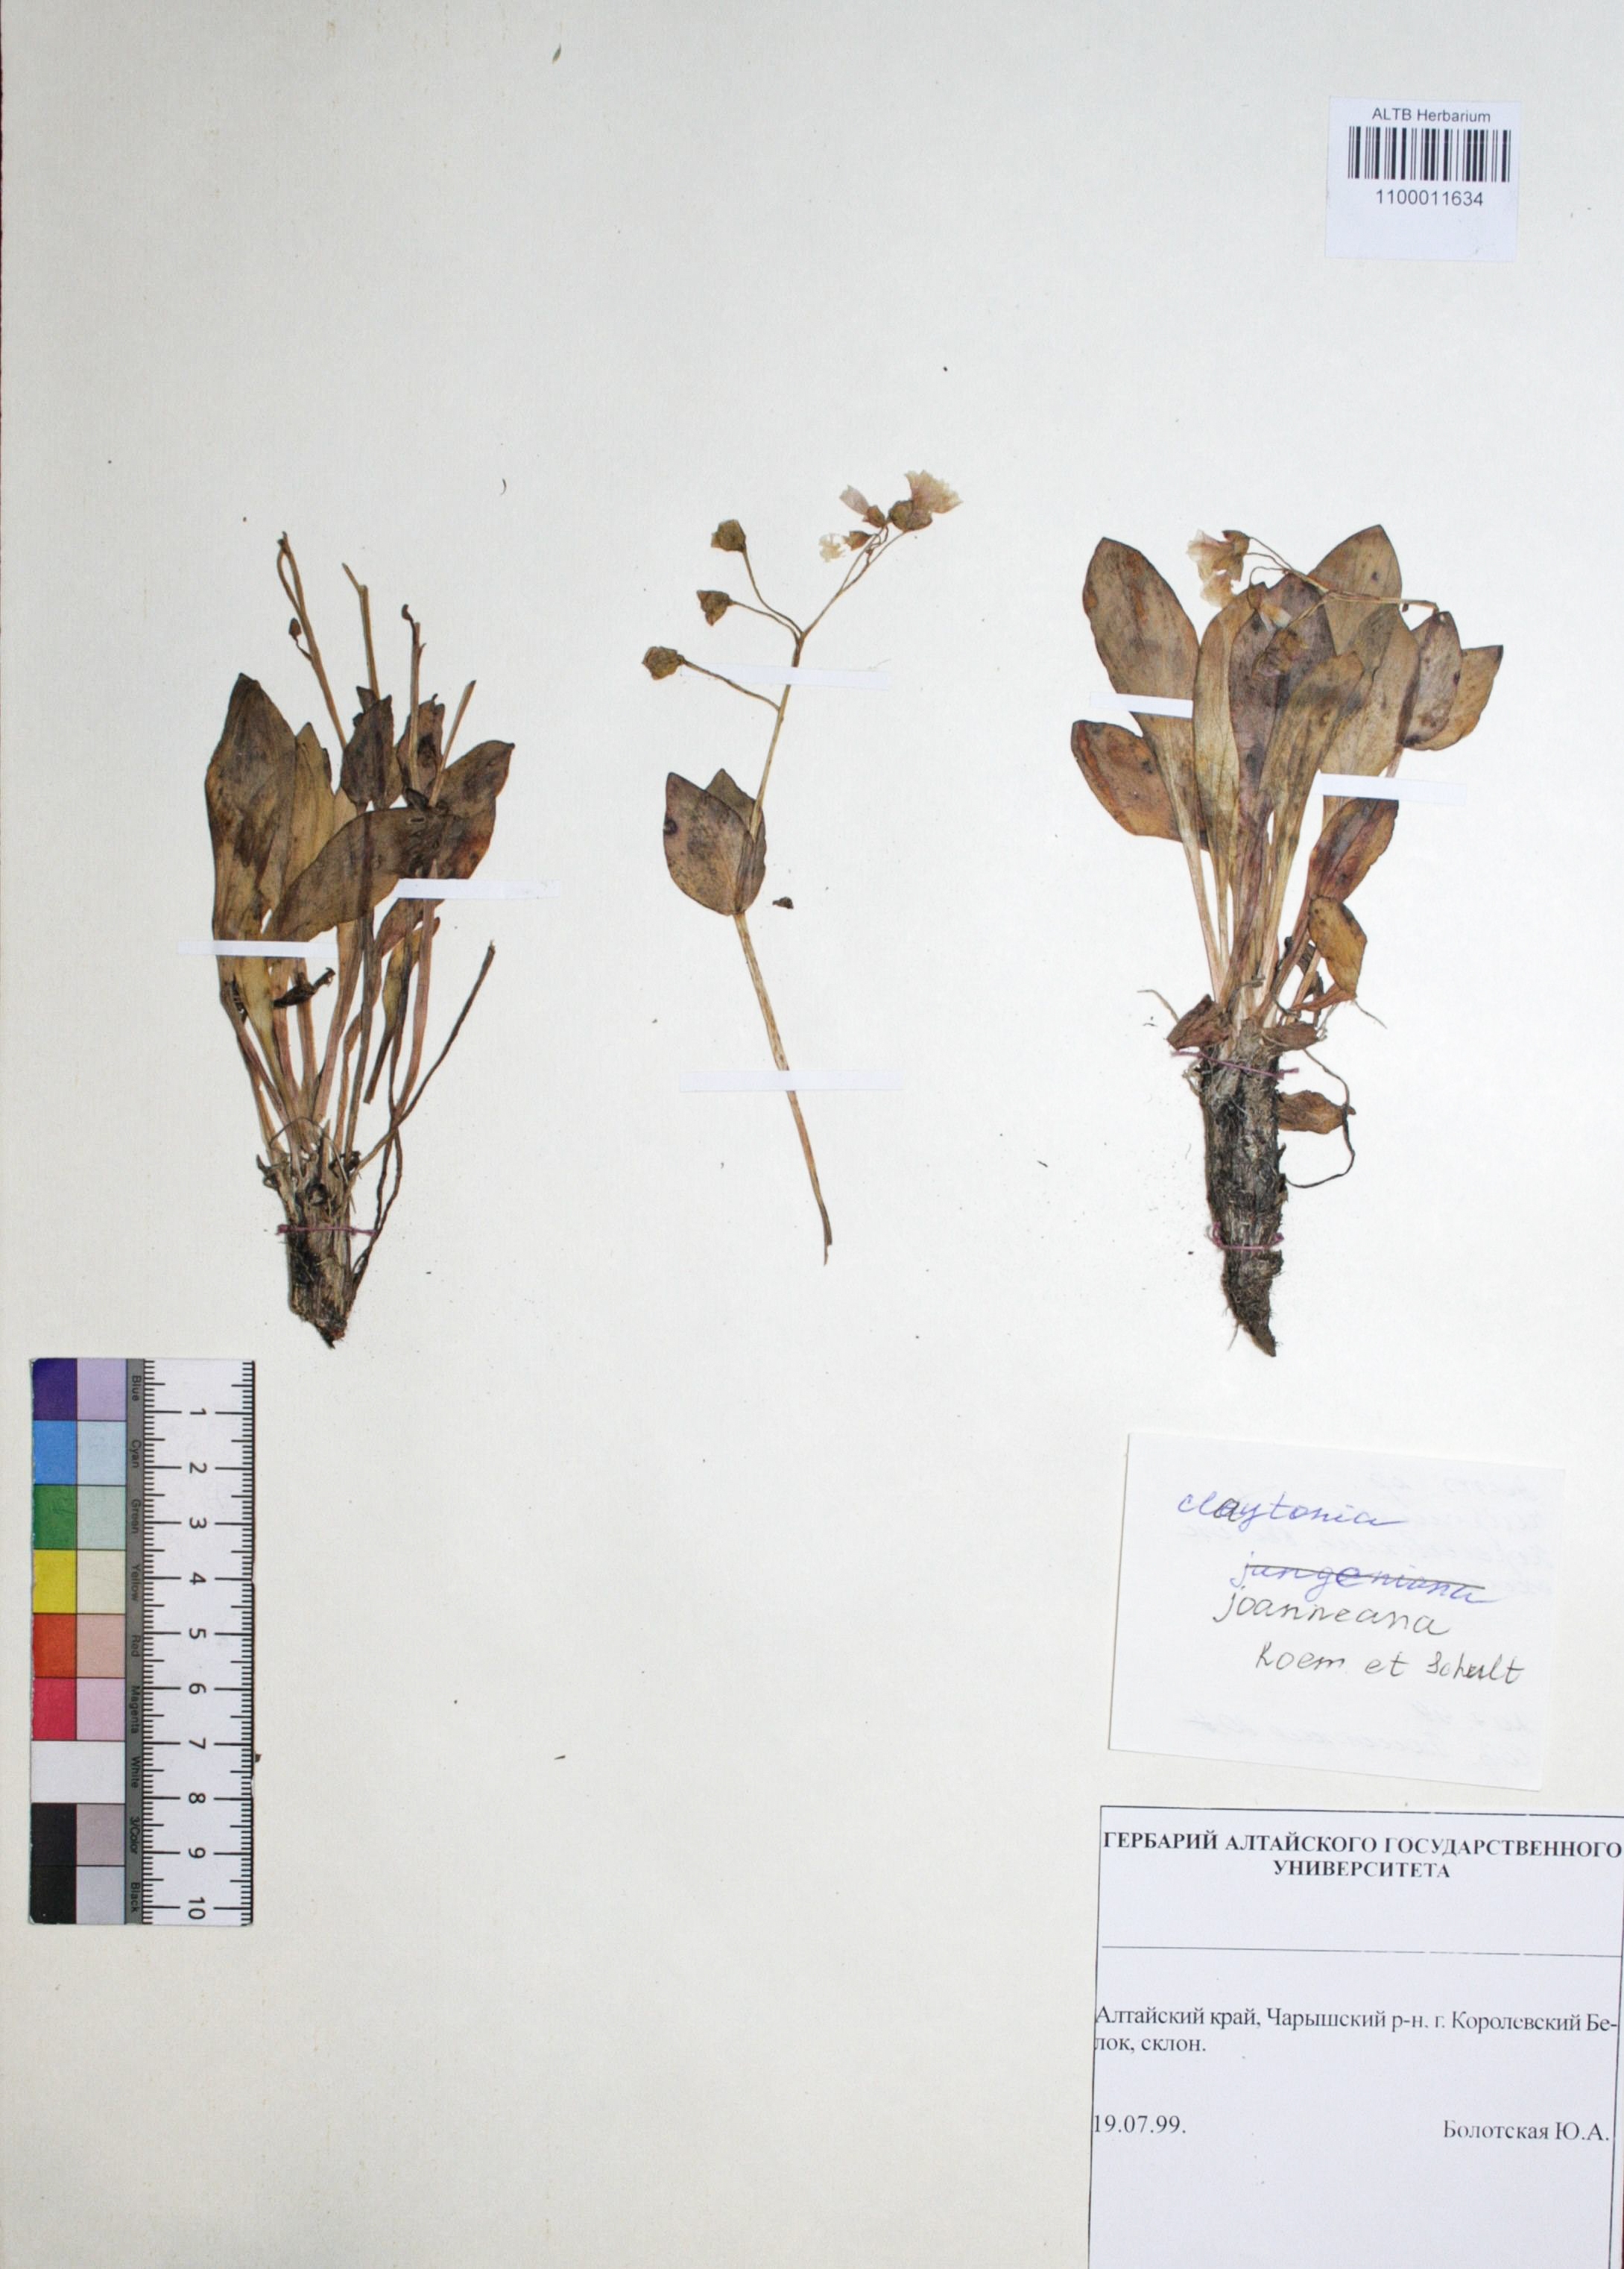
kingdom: Plantae
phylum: Tracheophyta
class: Magnoliopsida
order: Caryophyllales
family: Montiaceae
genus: Claytonia
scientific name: Claytonia joanneana
